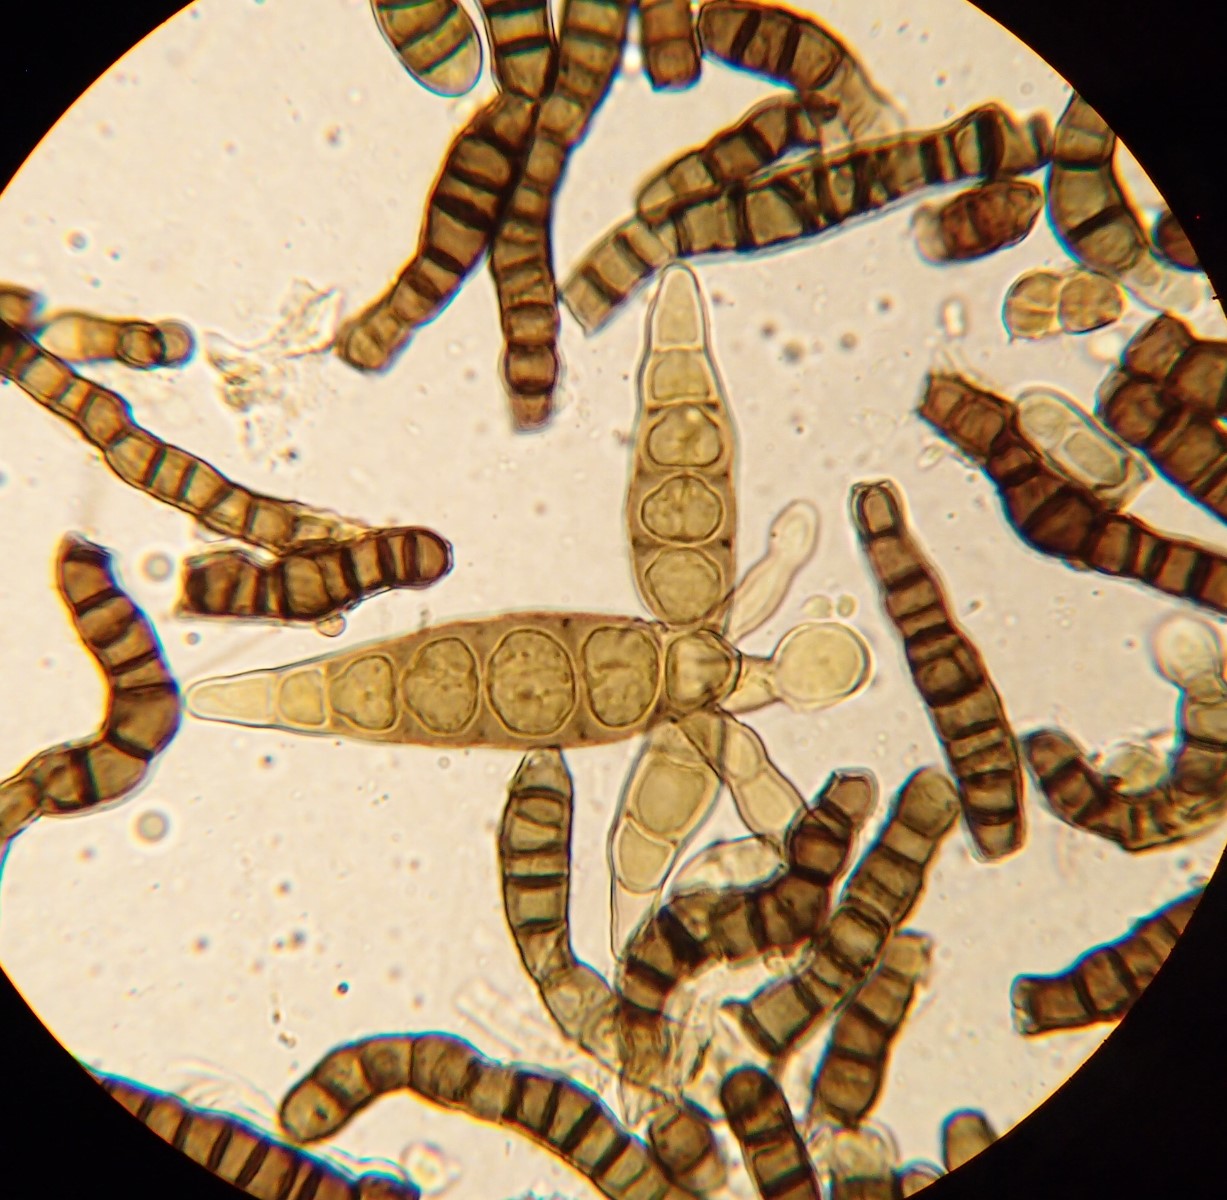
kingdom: Fungi
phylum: Ascomycota
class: Dothideomycetes
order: Pleosporales
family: Pleomassariaceae
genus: Pleomassaria
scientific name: Pleomassaria siparia
